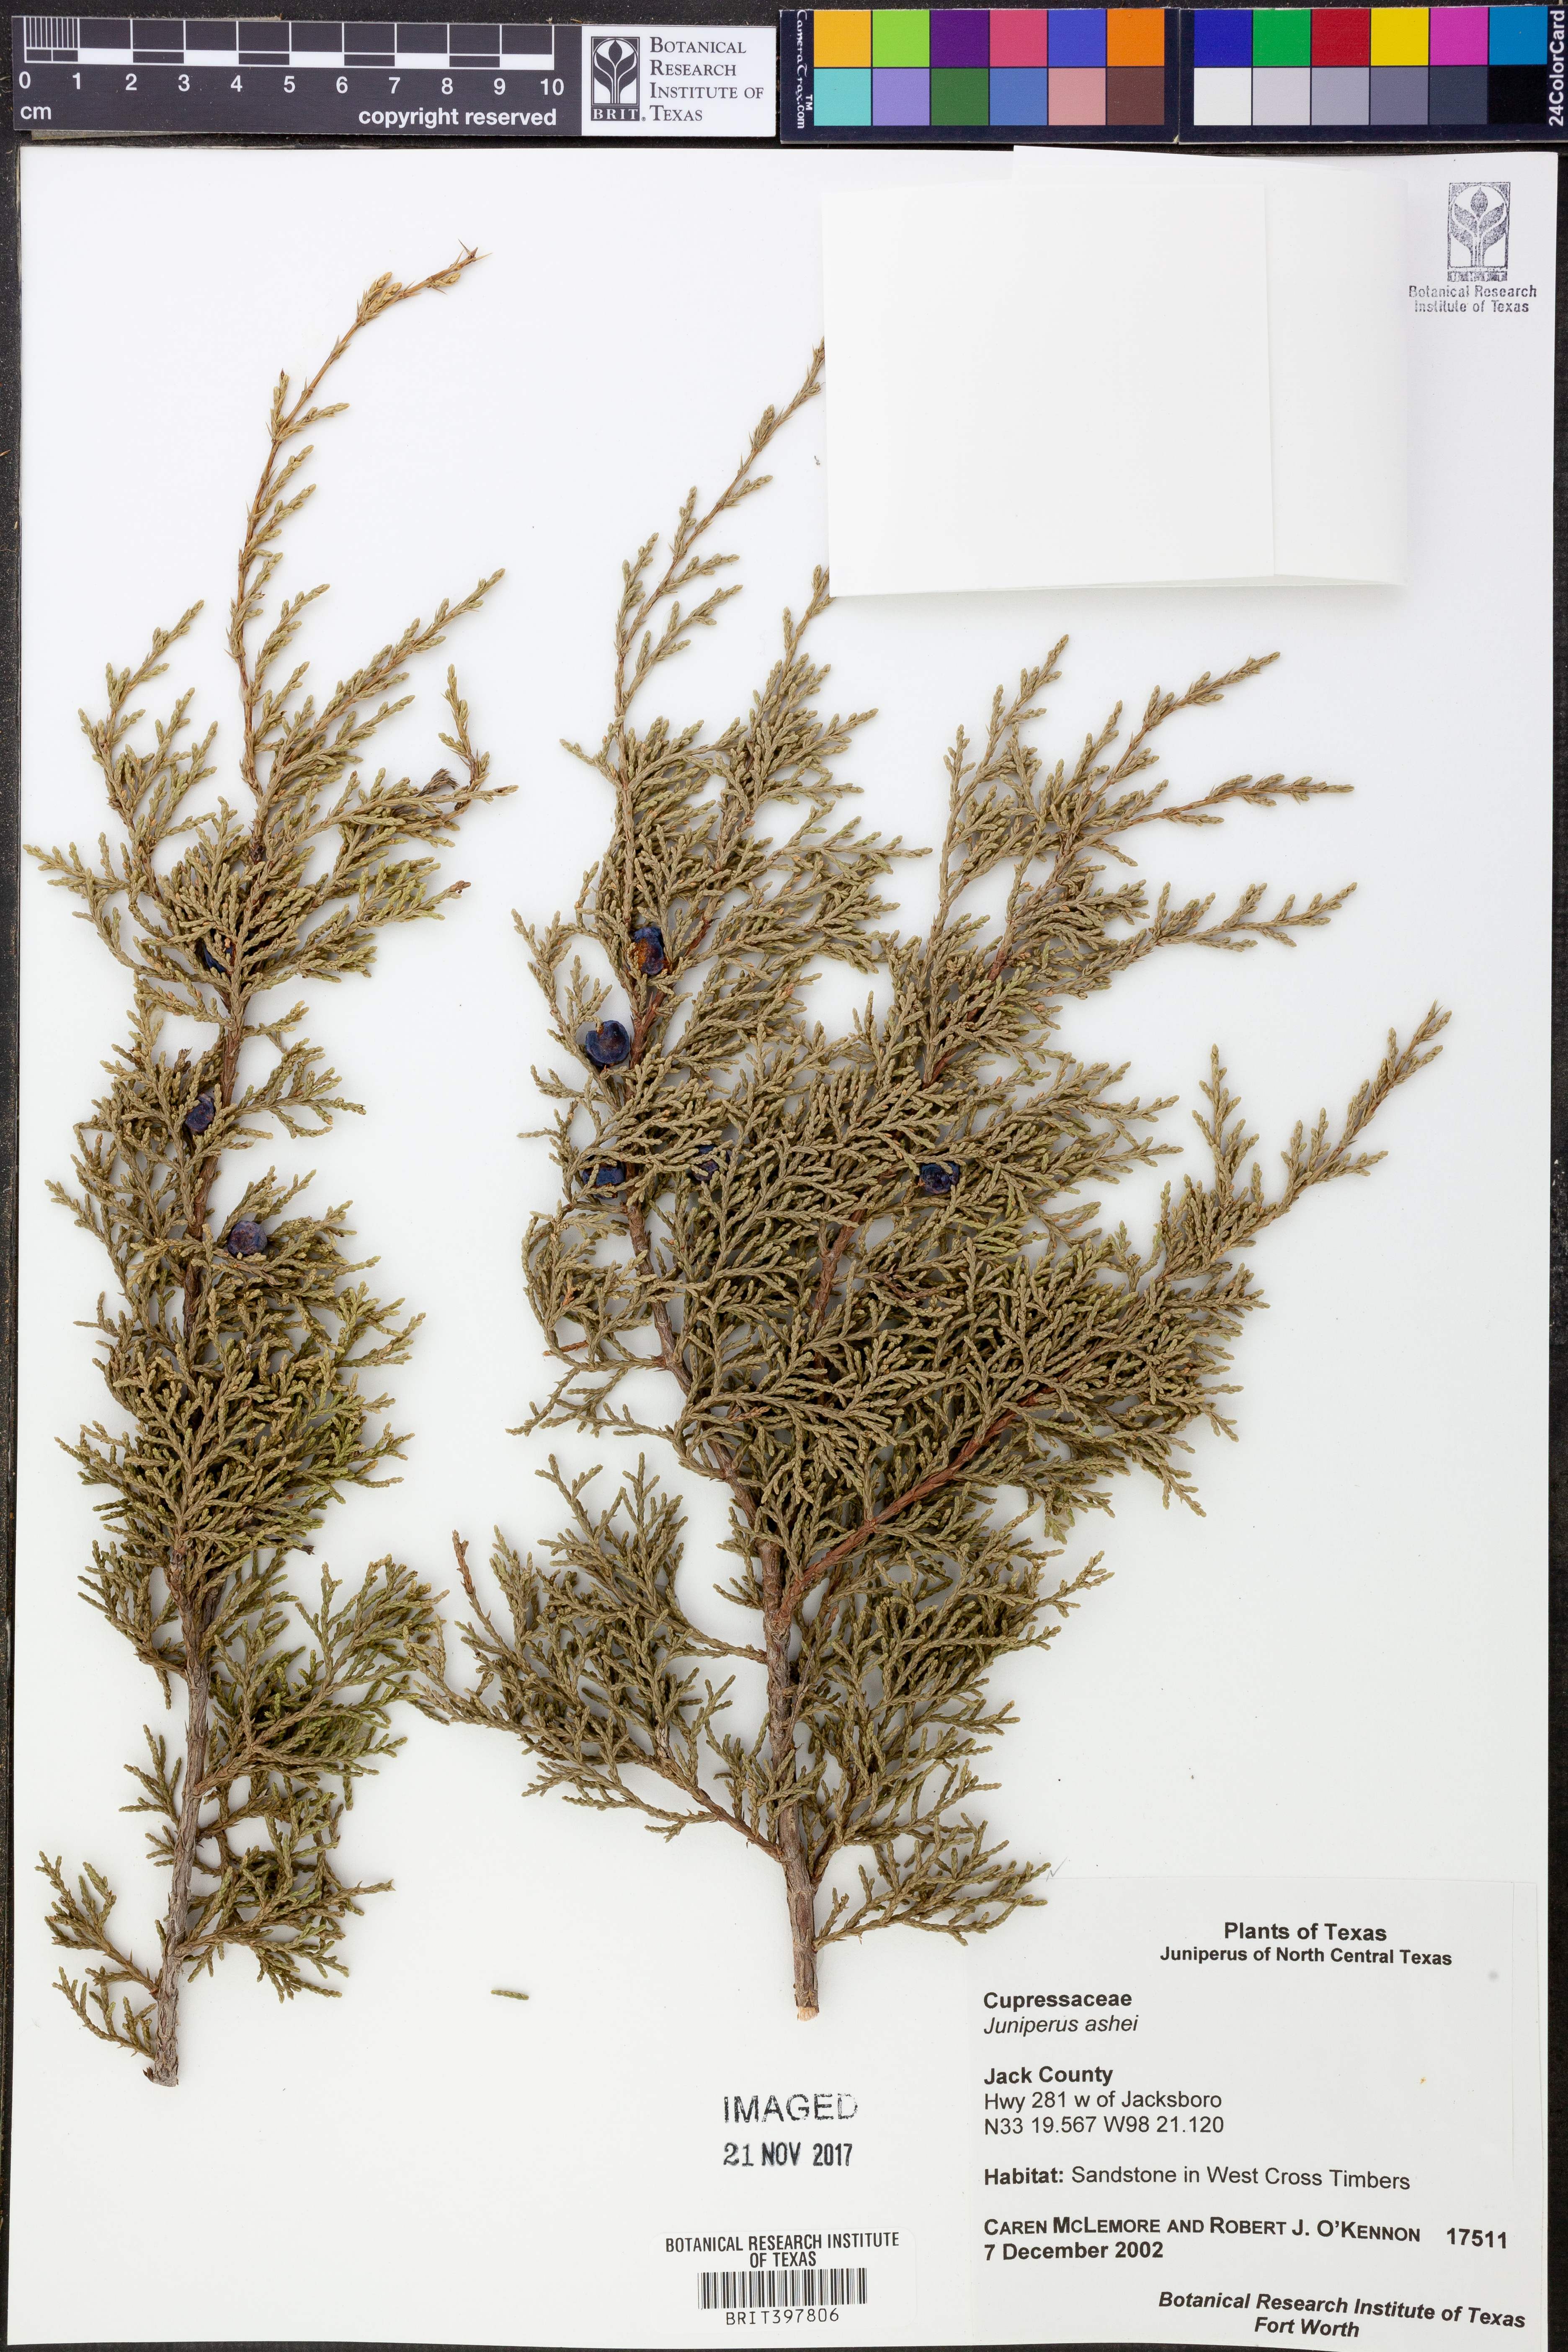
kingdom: Plantae
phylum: Tracheophyta
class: Pinopsida
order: Pinales
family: Cupressaceae
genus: Juniperus
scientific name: Juniperus ashei
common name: Mexican juniper
